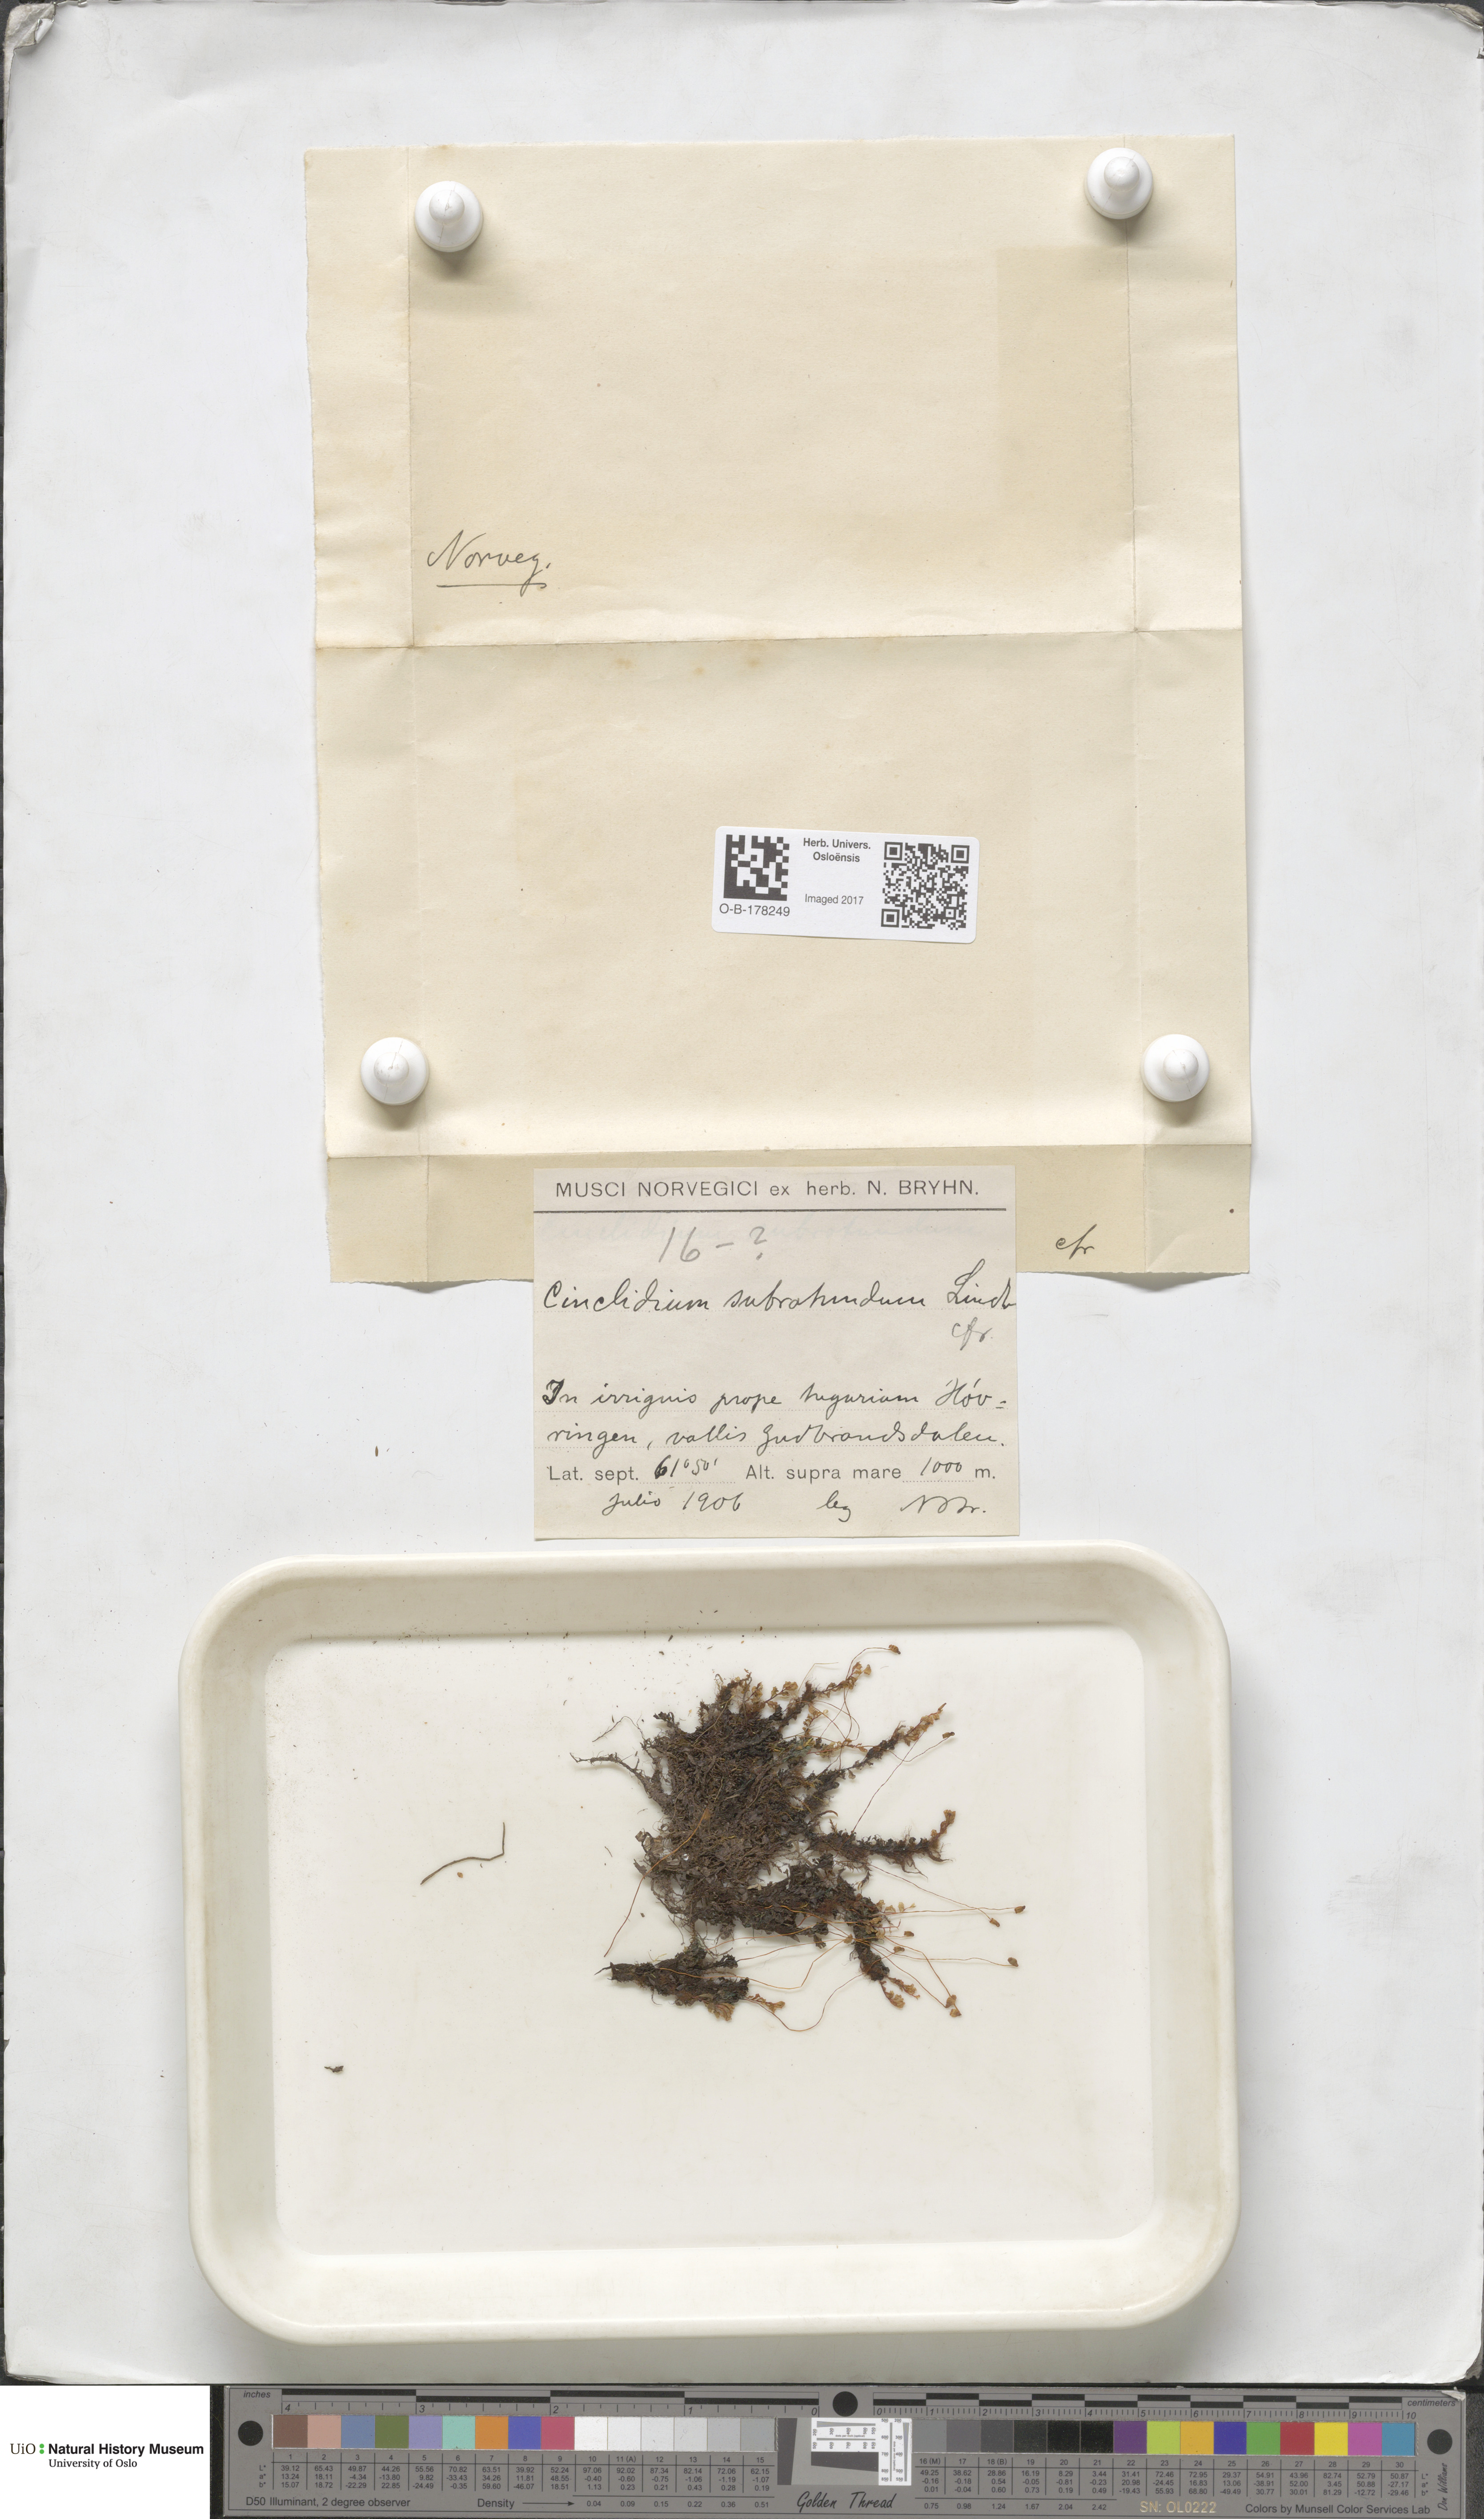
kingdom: Plantae
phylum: Bryophyta
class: Bryopsida
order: Bryales
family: Mniaceae
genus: Cinclidium
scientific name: Cinclidium subrotundum
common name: Ovate cupola moss
